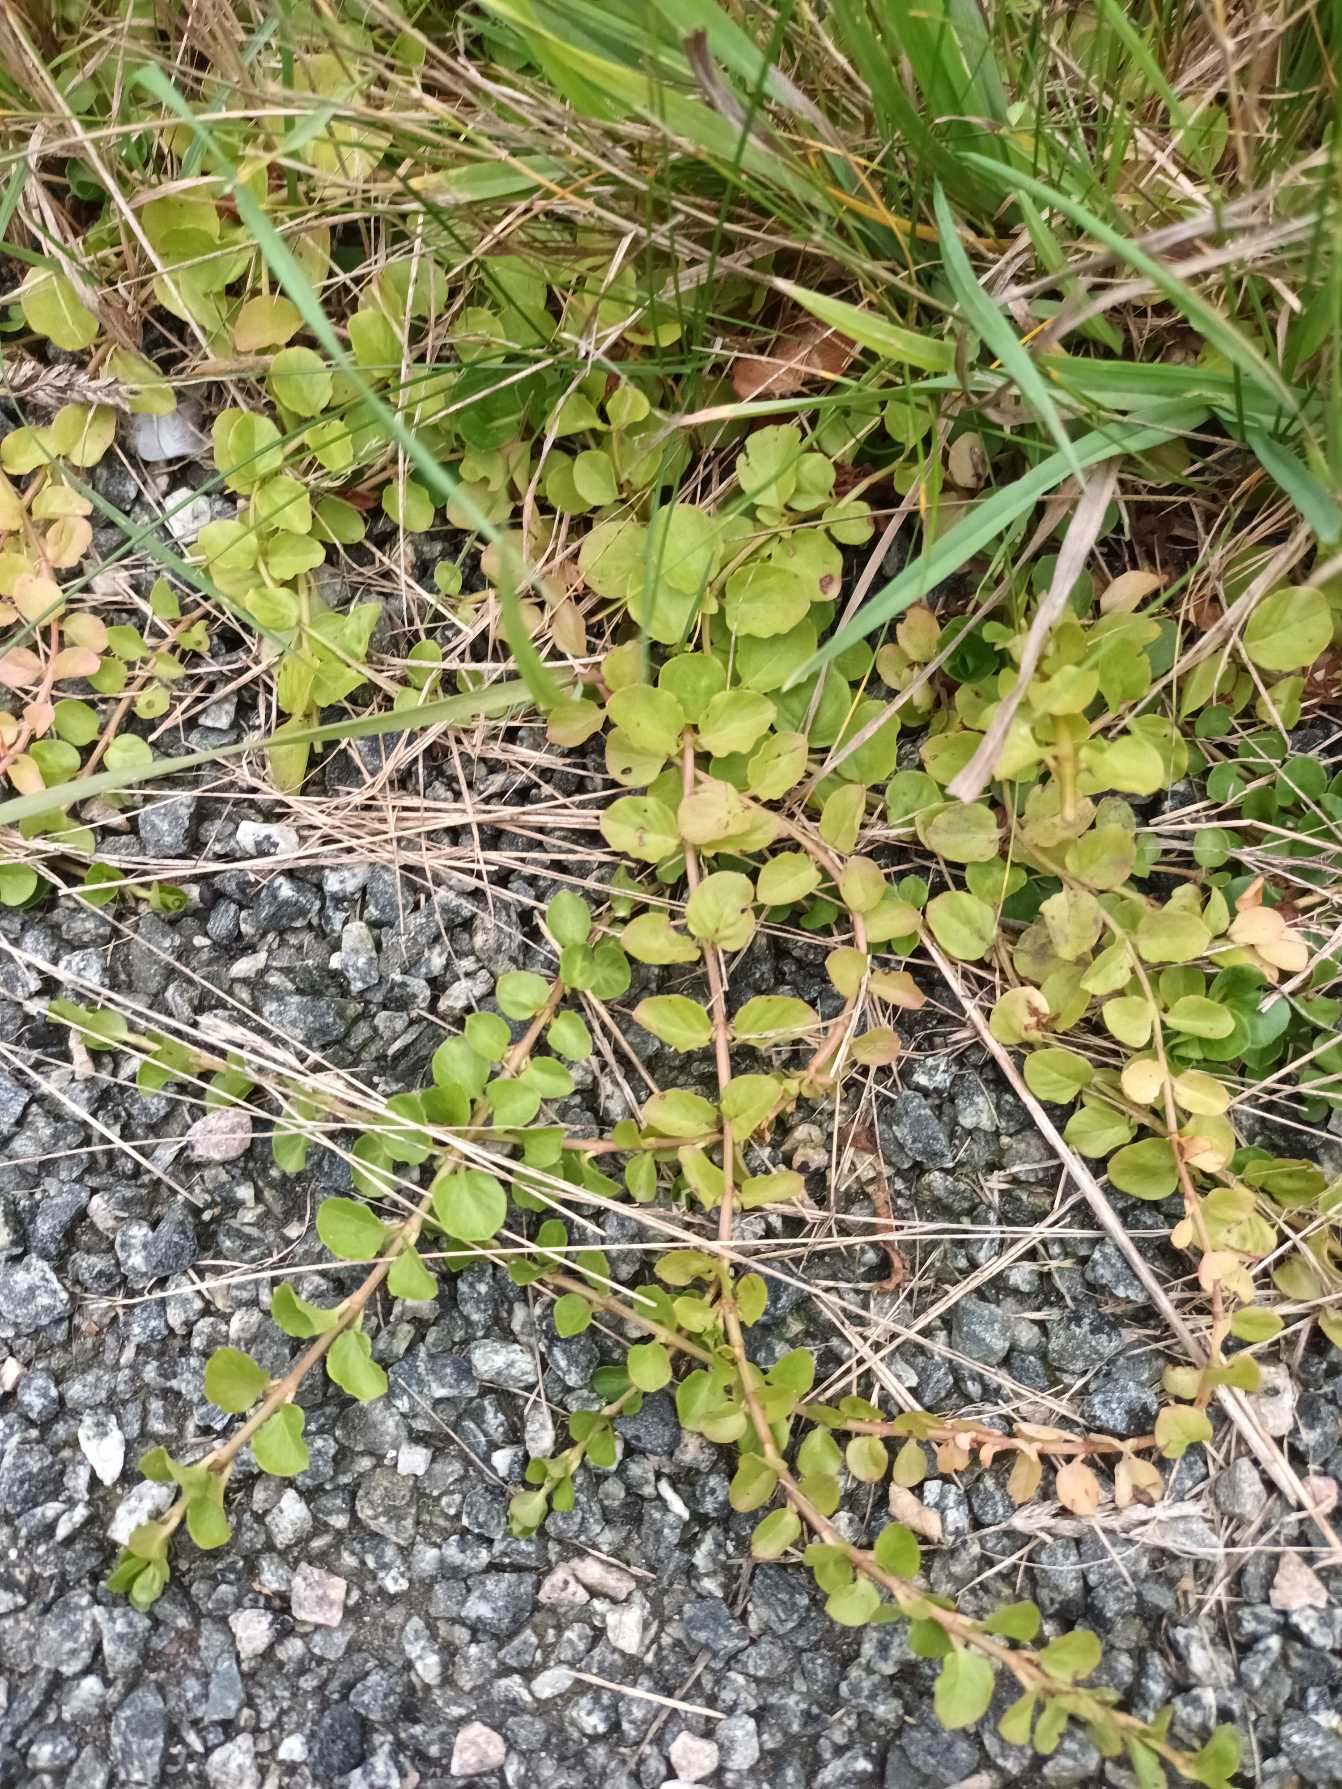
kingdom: Plantae
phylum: Tracheophyta
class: Magnoliopsida
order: Ericales
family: Primulaceae
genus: Lysimachia
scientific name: Lysimachia nummularia
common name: Pengebladet fredløs
